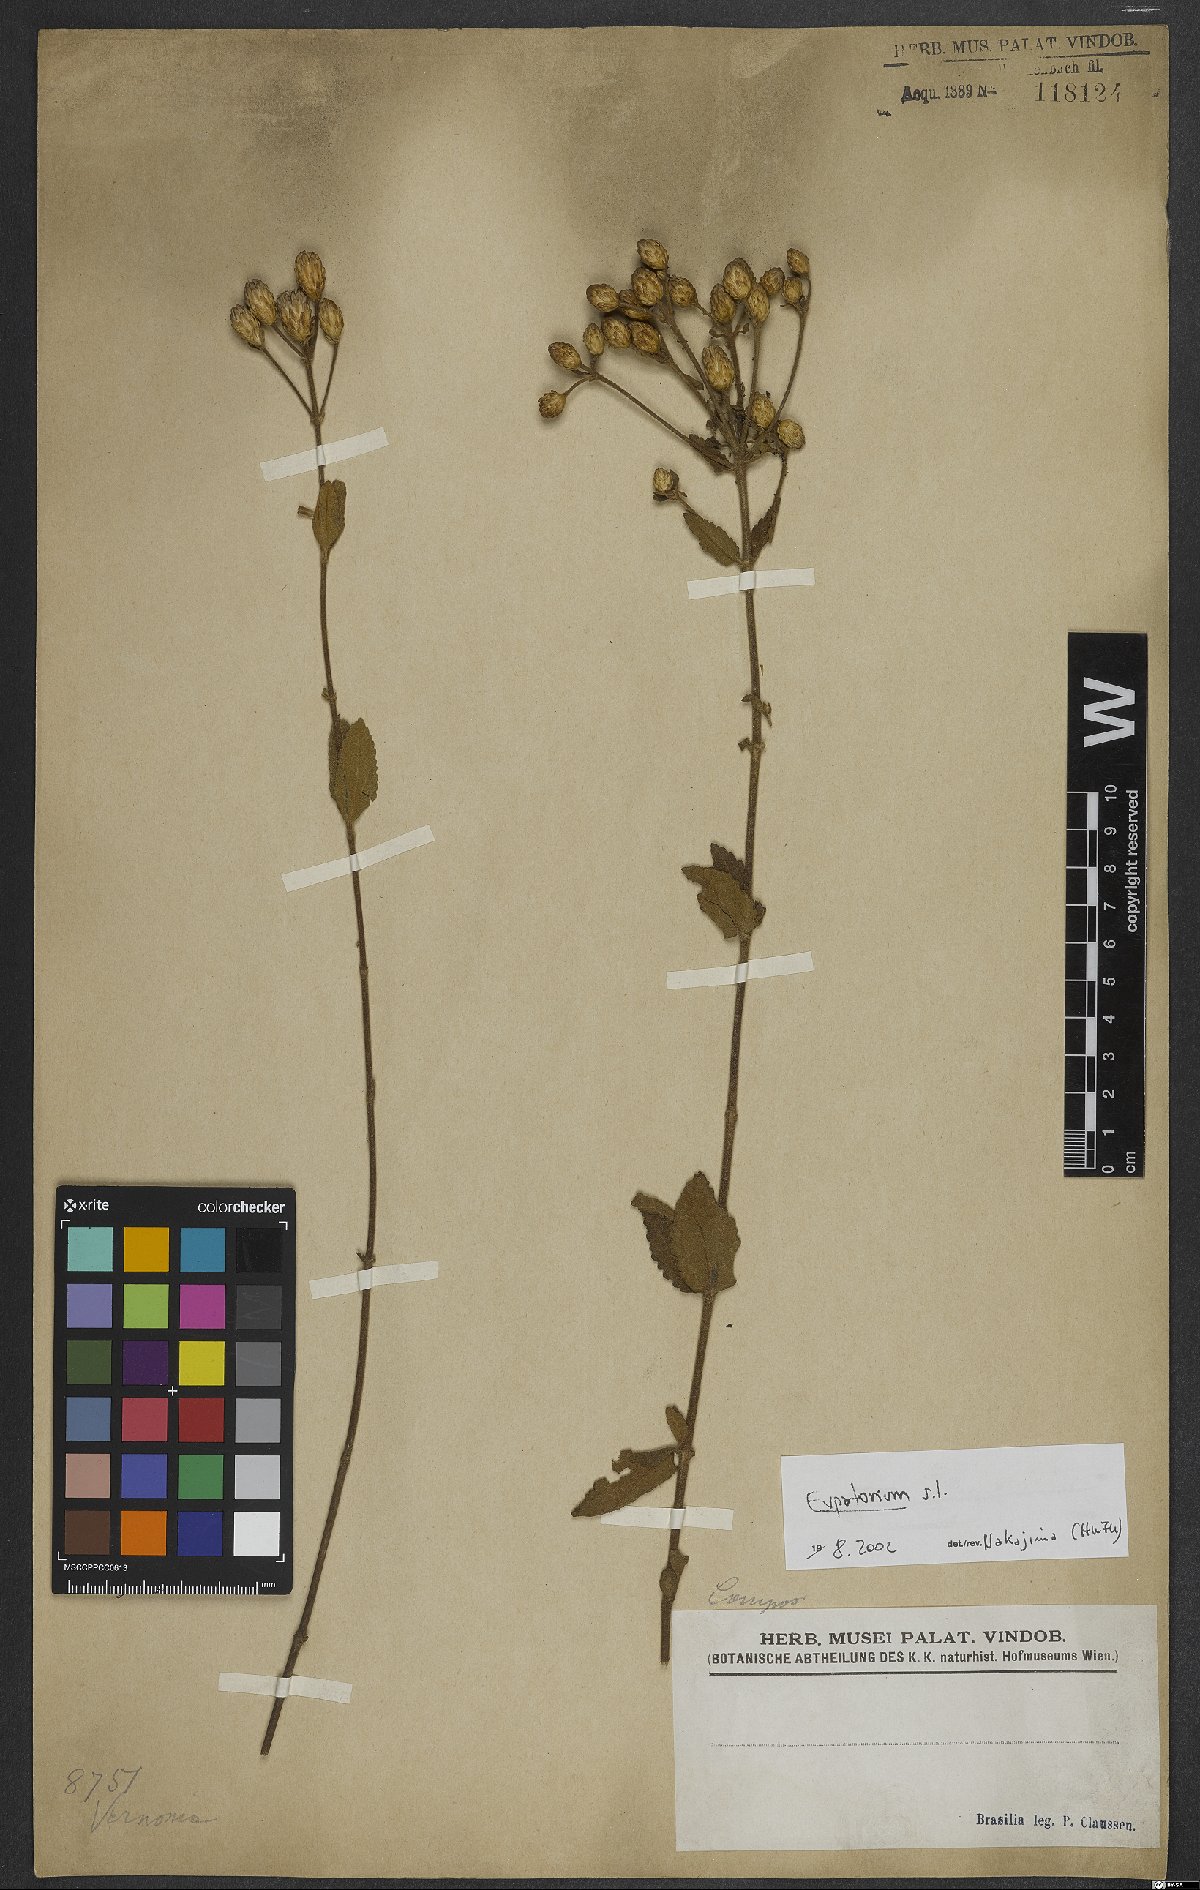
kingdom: Plantae
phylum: Tracheophyta
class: Magnoliopsida
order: Asterales
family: Asteraceae
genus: Eupatorium
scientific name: Eupatorium
